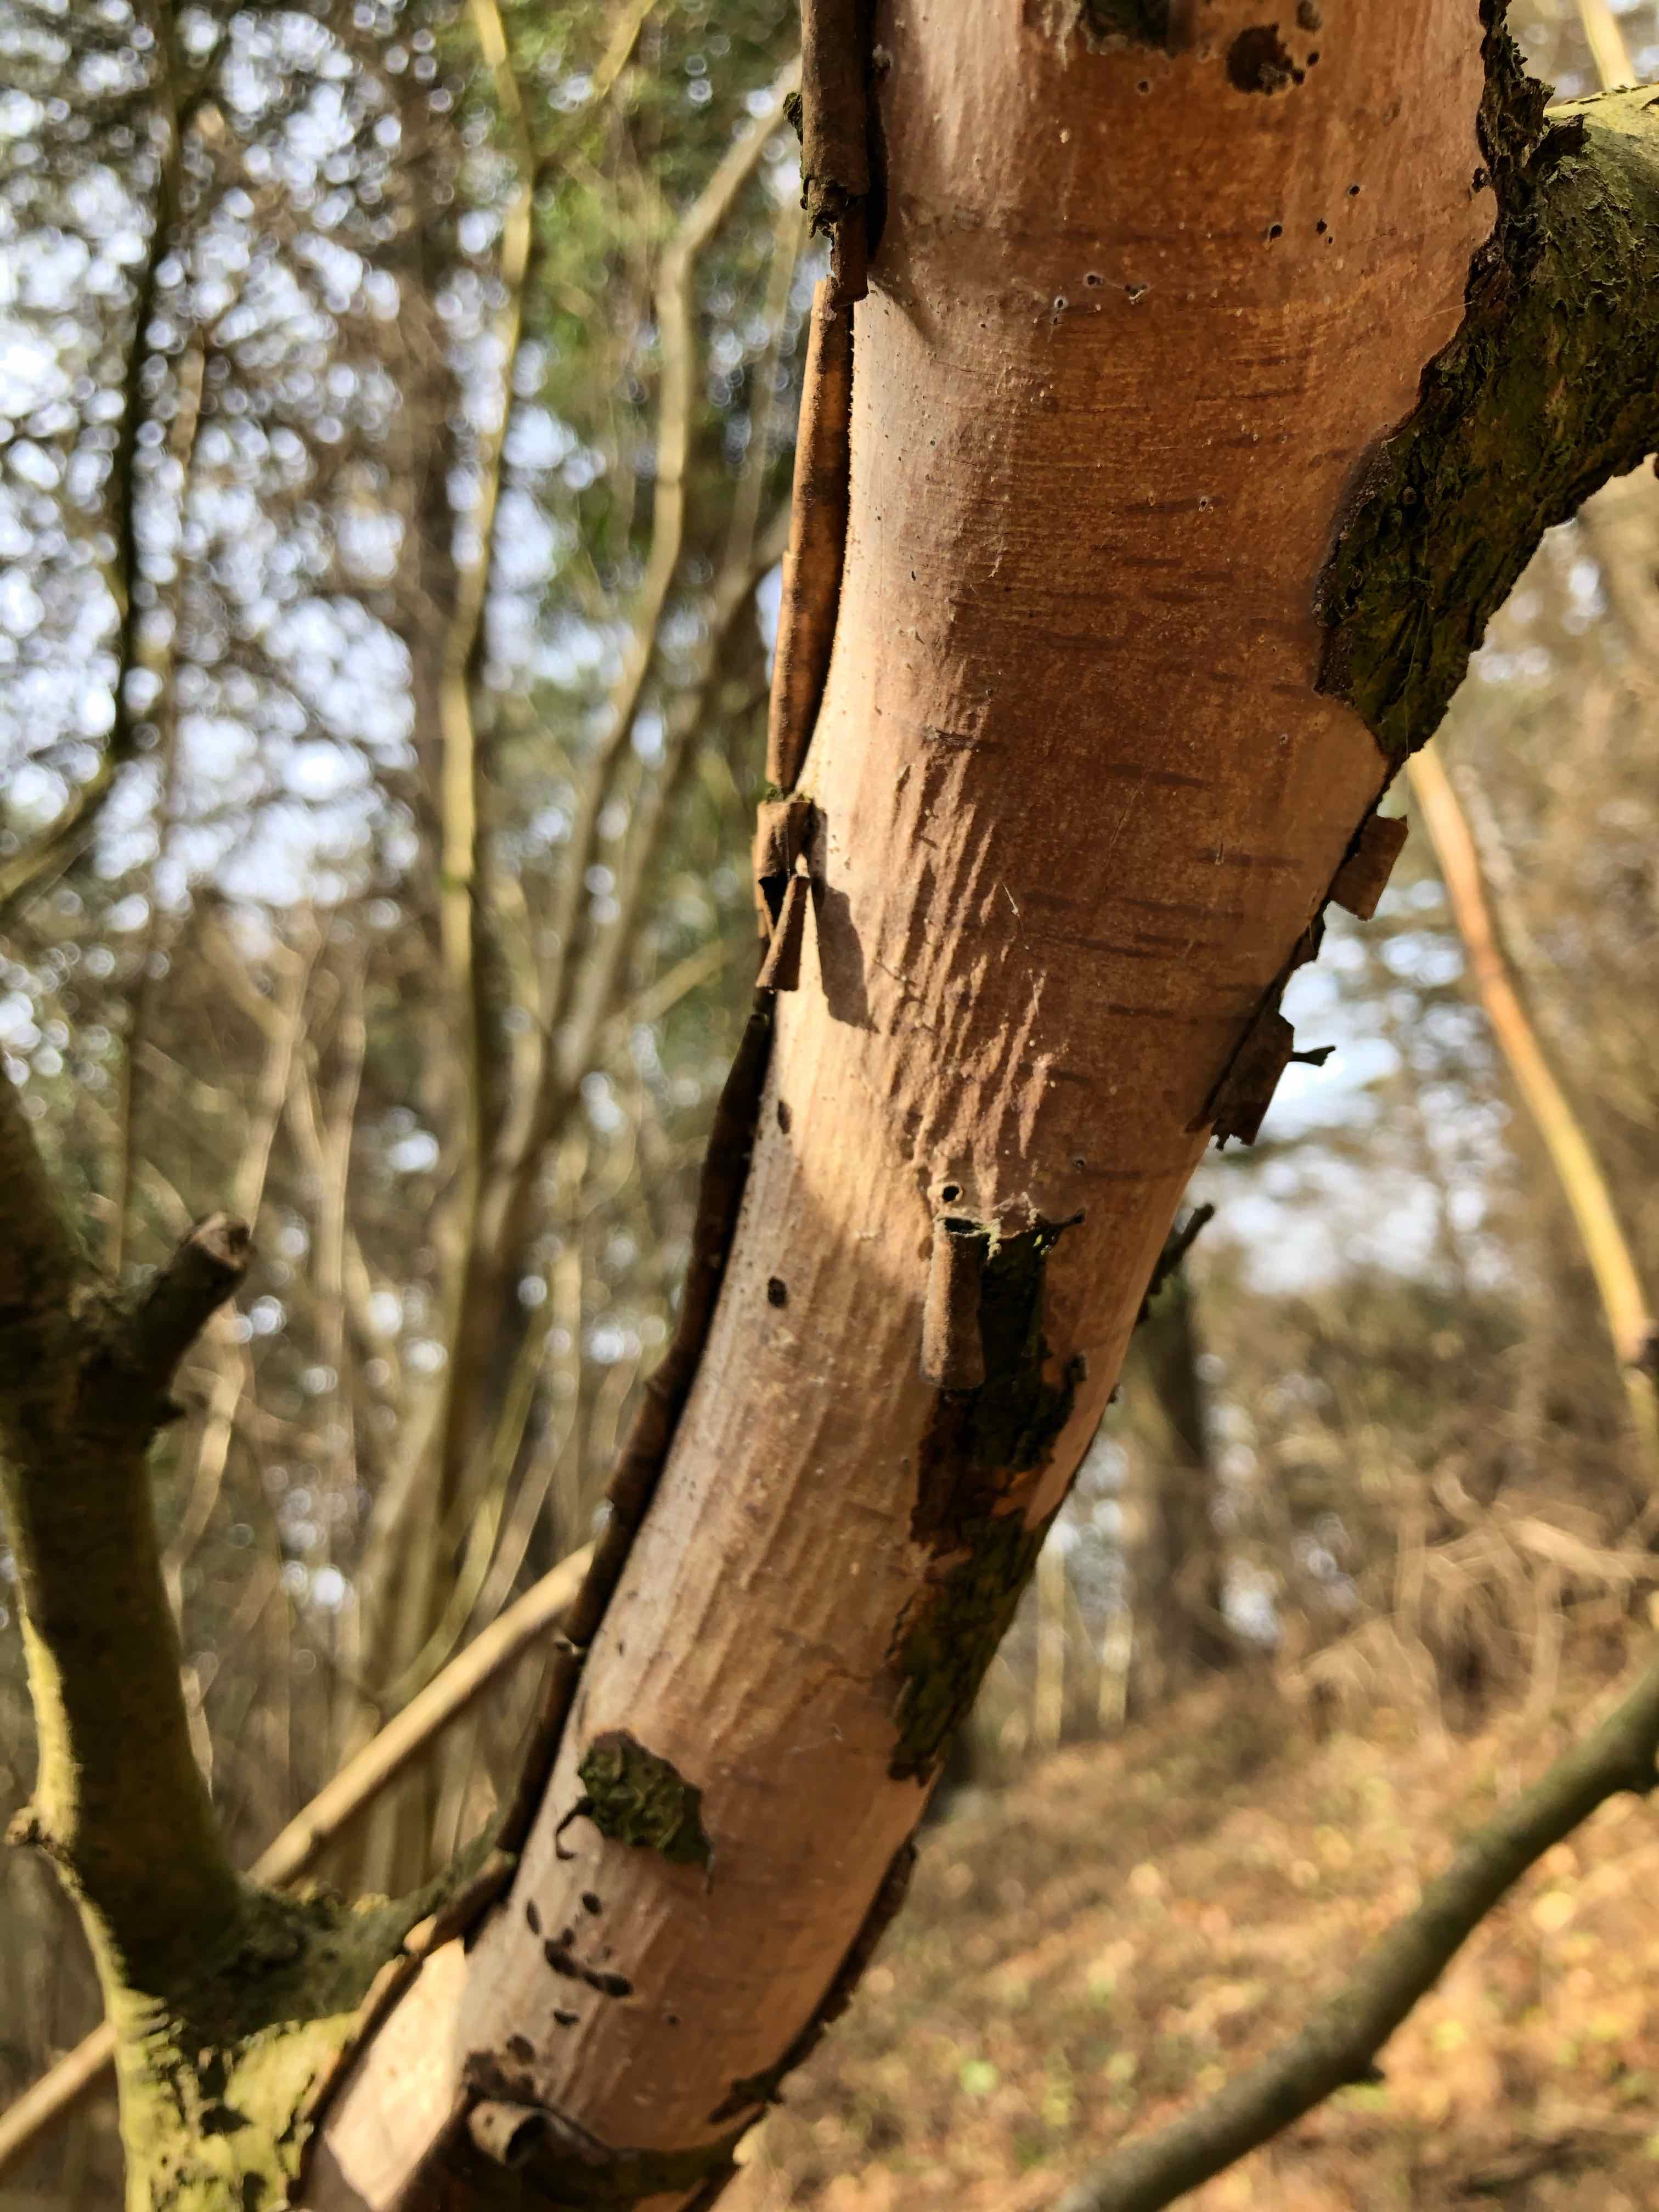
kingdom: Fungi
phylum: Basidiomycota
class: Agaricomycetes
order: Corticiales
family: Vuilleminiaceae
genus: Vuilleminia
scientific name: Vuilleminia coryli
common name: hassel-barksprænger
